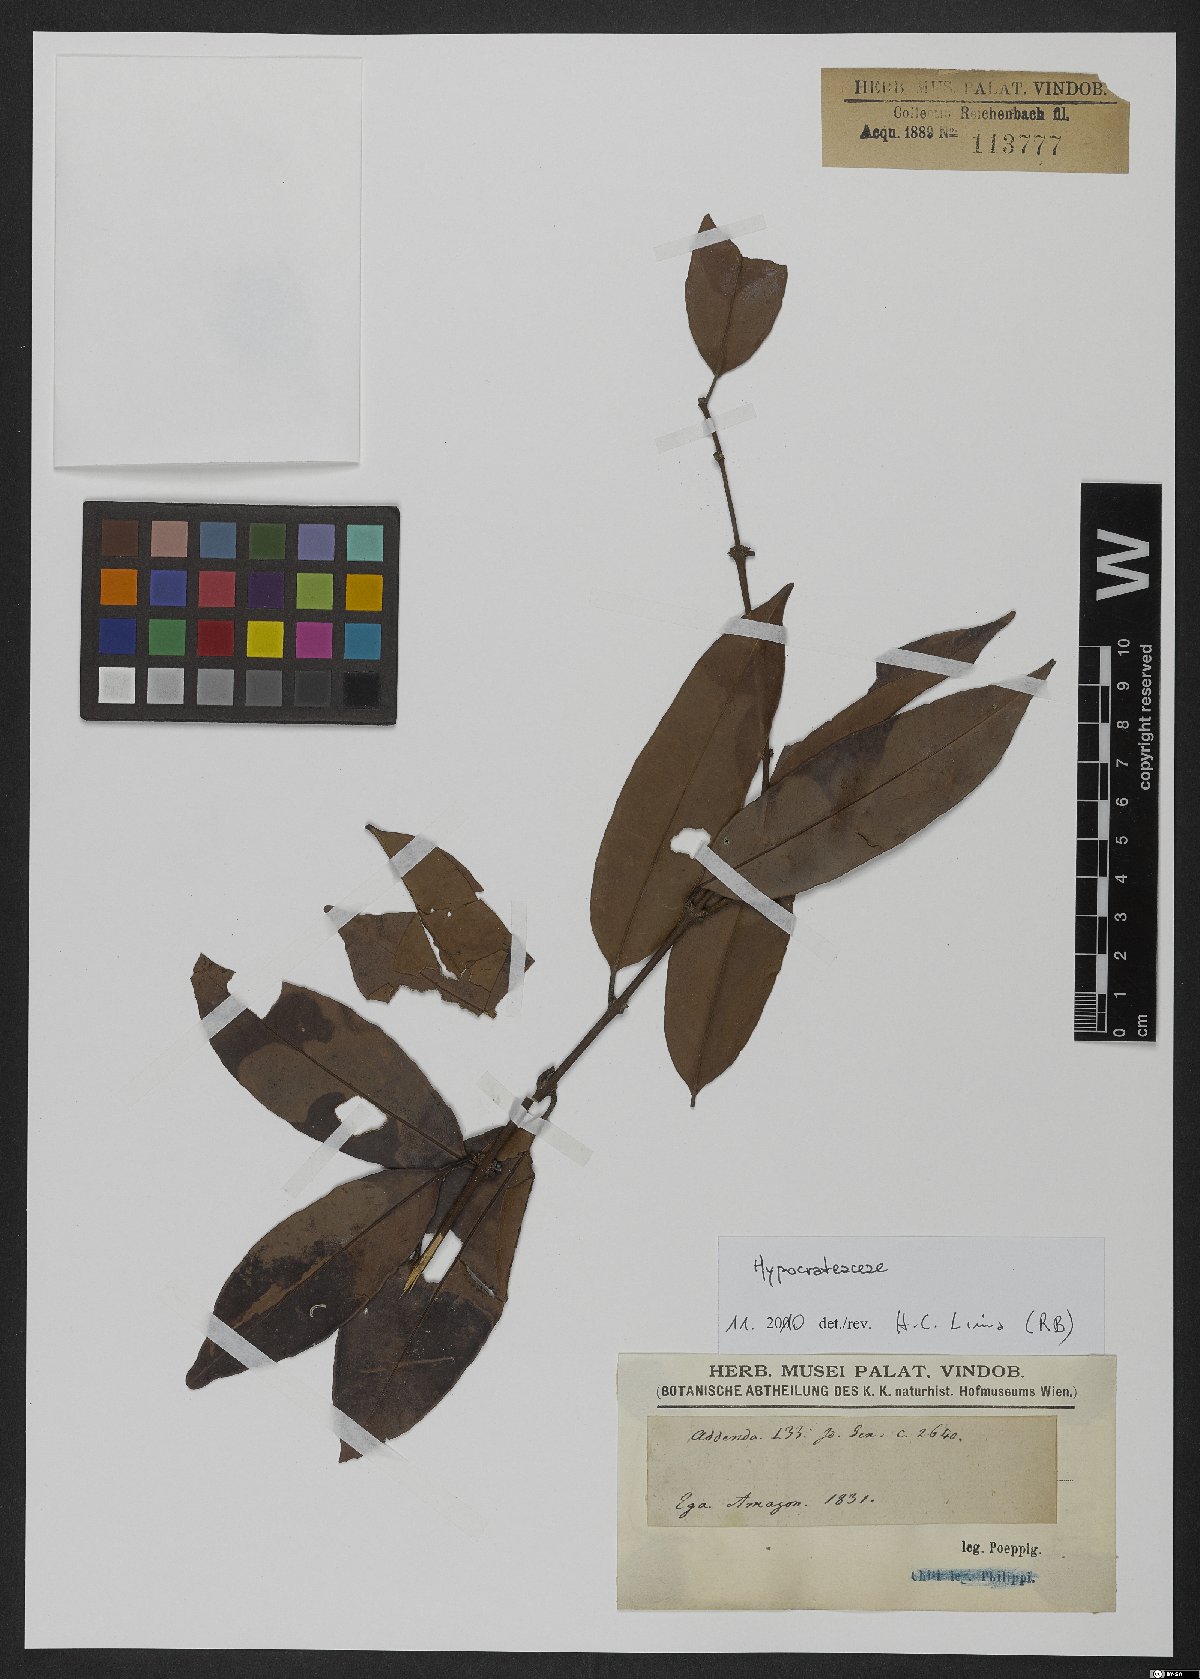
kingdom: Plantae
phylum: Tracheophyta
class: Magnoliopsida
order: Celastrales
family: Celastraceae
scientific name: Celastraceae
